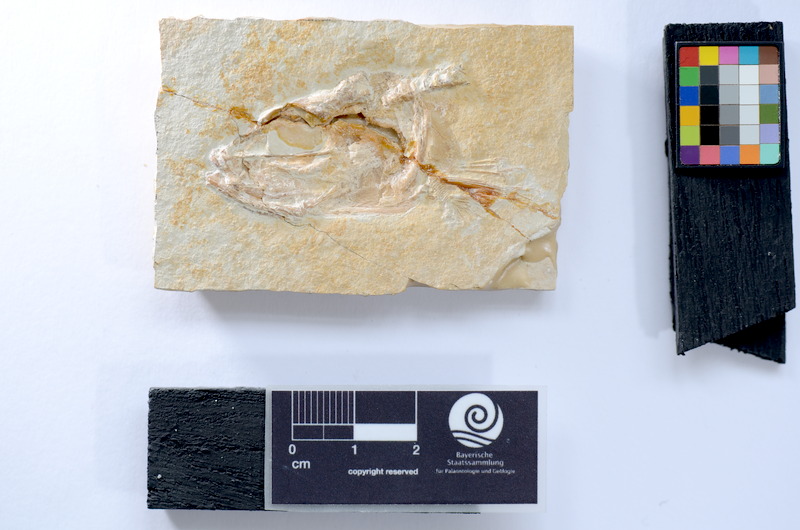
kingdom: Animalia
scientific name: Animalia
